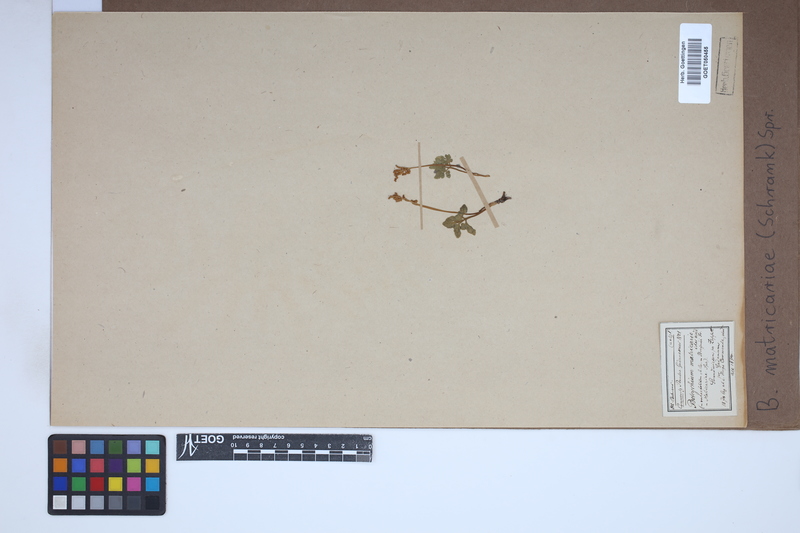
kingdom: Plantae
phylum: Tracheophyta
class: Polypodiopsida
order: Ophioglossales
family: Ophioglossaceae
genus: Sceptridium
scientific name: Sceptridium multifidum
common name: Leathery grape fern
